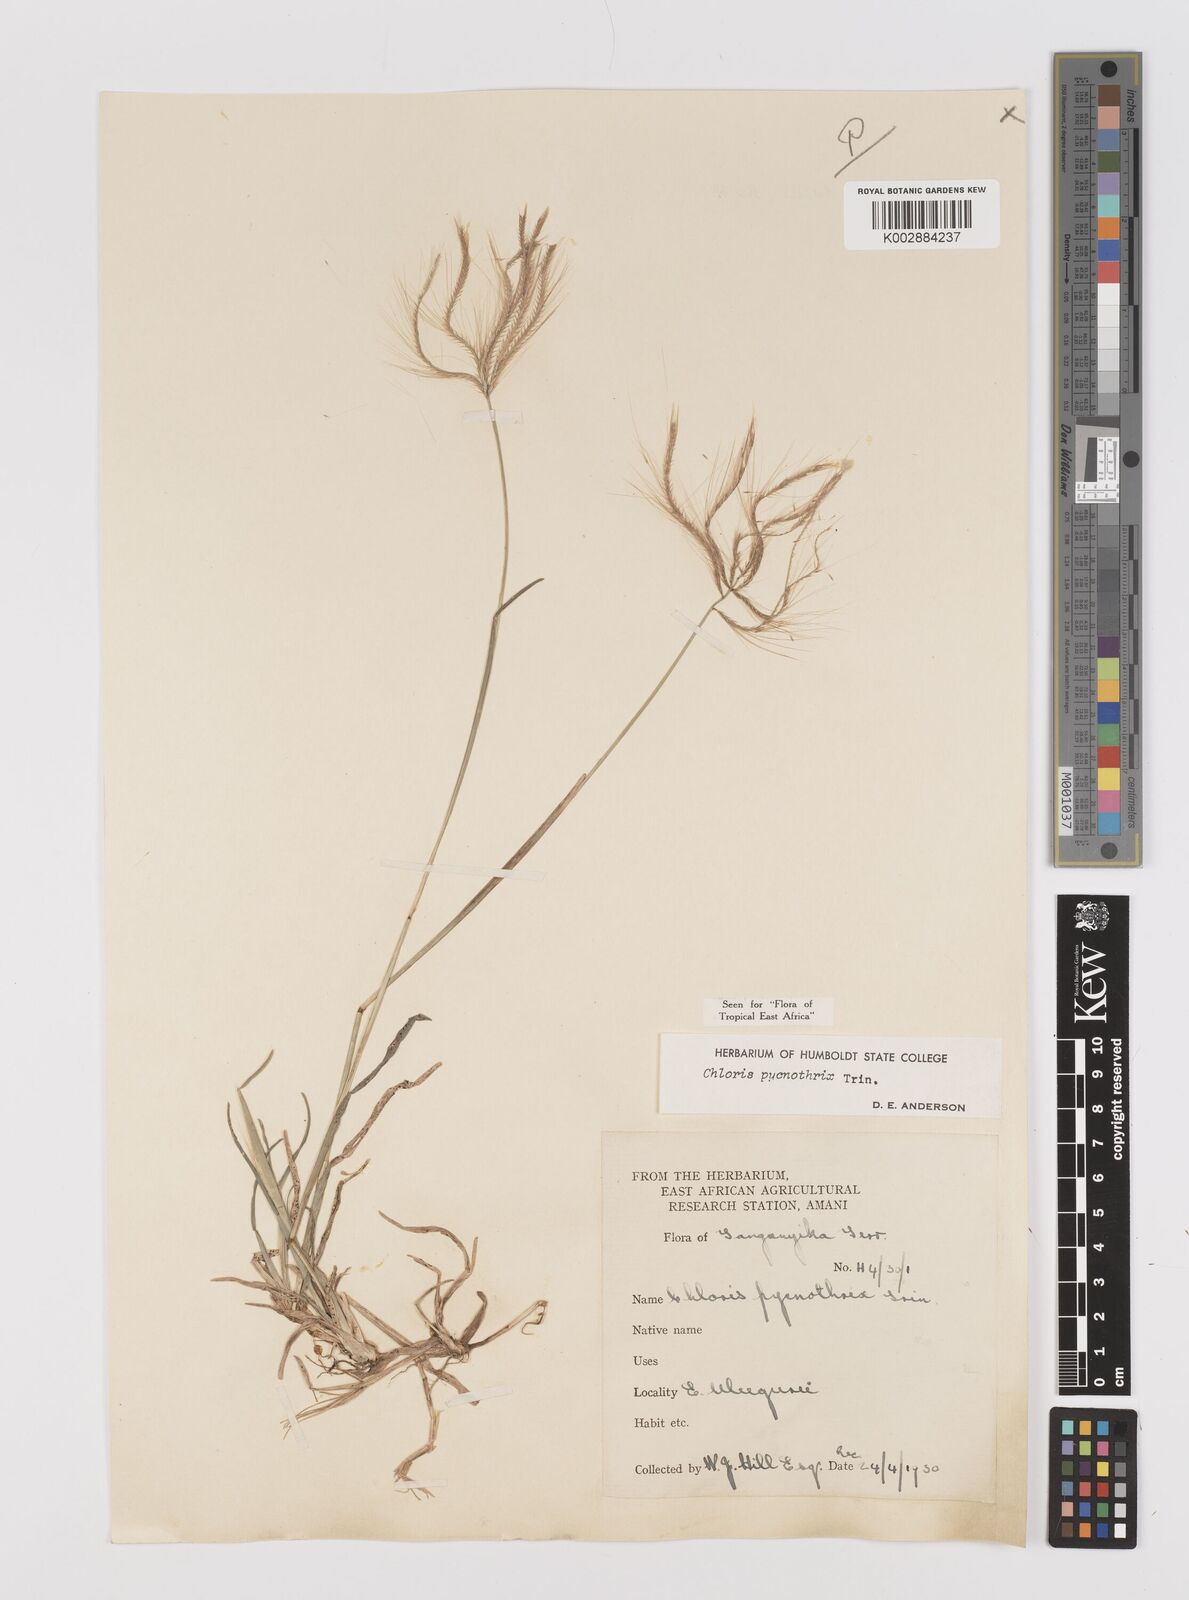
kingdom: Plantae
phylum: Tracheophyta
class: Liliopsida
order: Poales
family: Poaceae
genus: Chloris
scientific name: Chloris pycnothrix
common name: Spiderweb chloris
